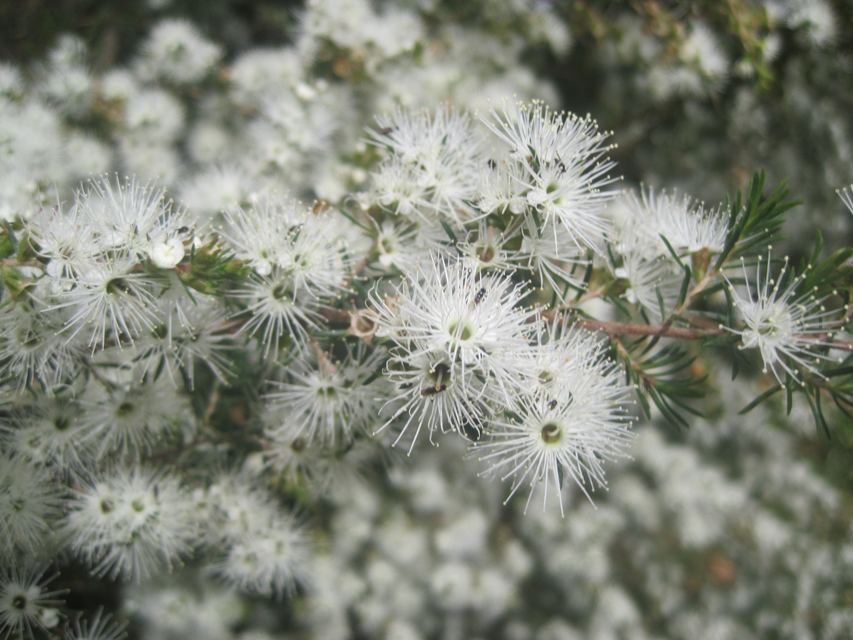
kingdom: Plantae
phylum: Tracheophyta
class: Magnoliopsida
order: Myrtales
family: Myrtaceae
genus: Kunzea
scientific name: Kunzea ambigua
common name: Tickbush
